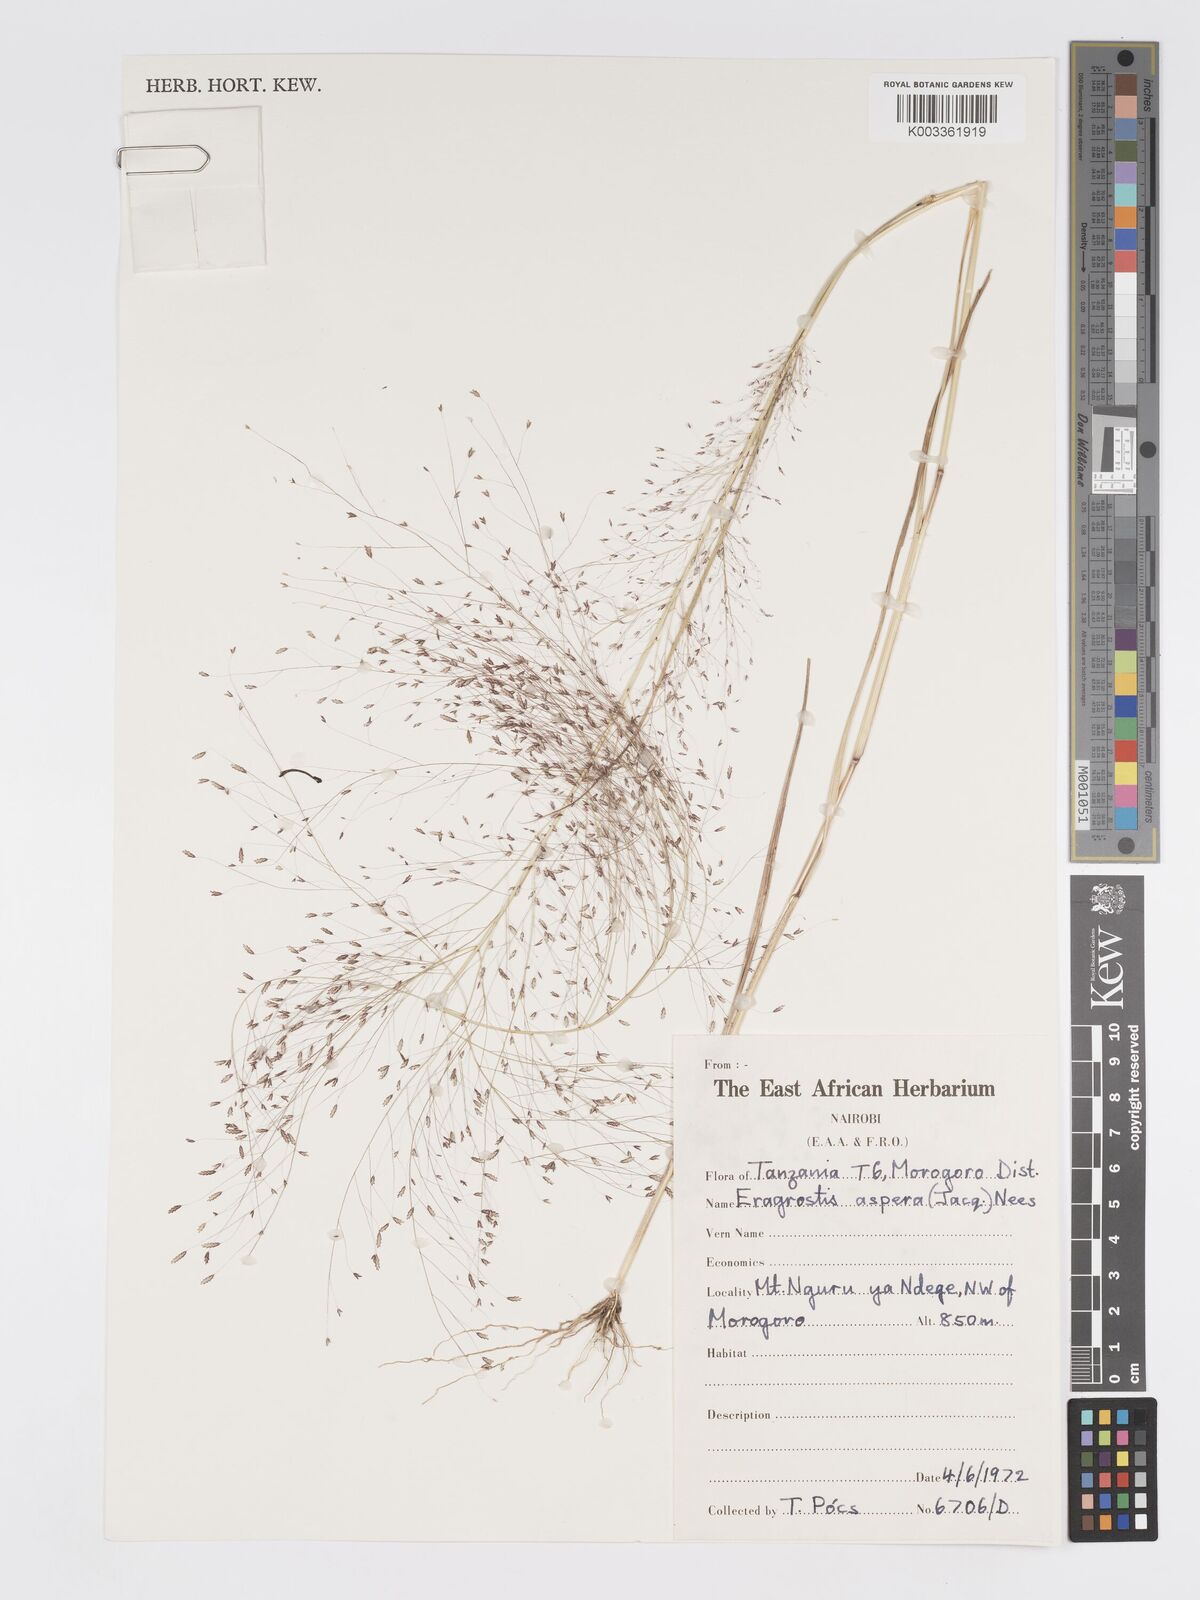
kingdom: Plantae
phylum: Tracheophyta
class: Liliopsida
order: Poales
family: Poaceae
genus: Eragrostis
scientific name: Eragrostis aspera
